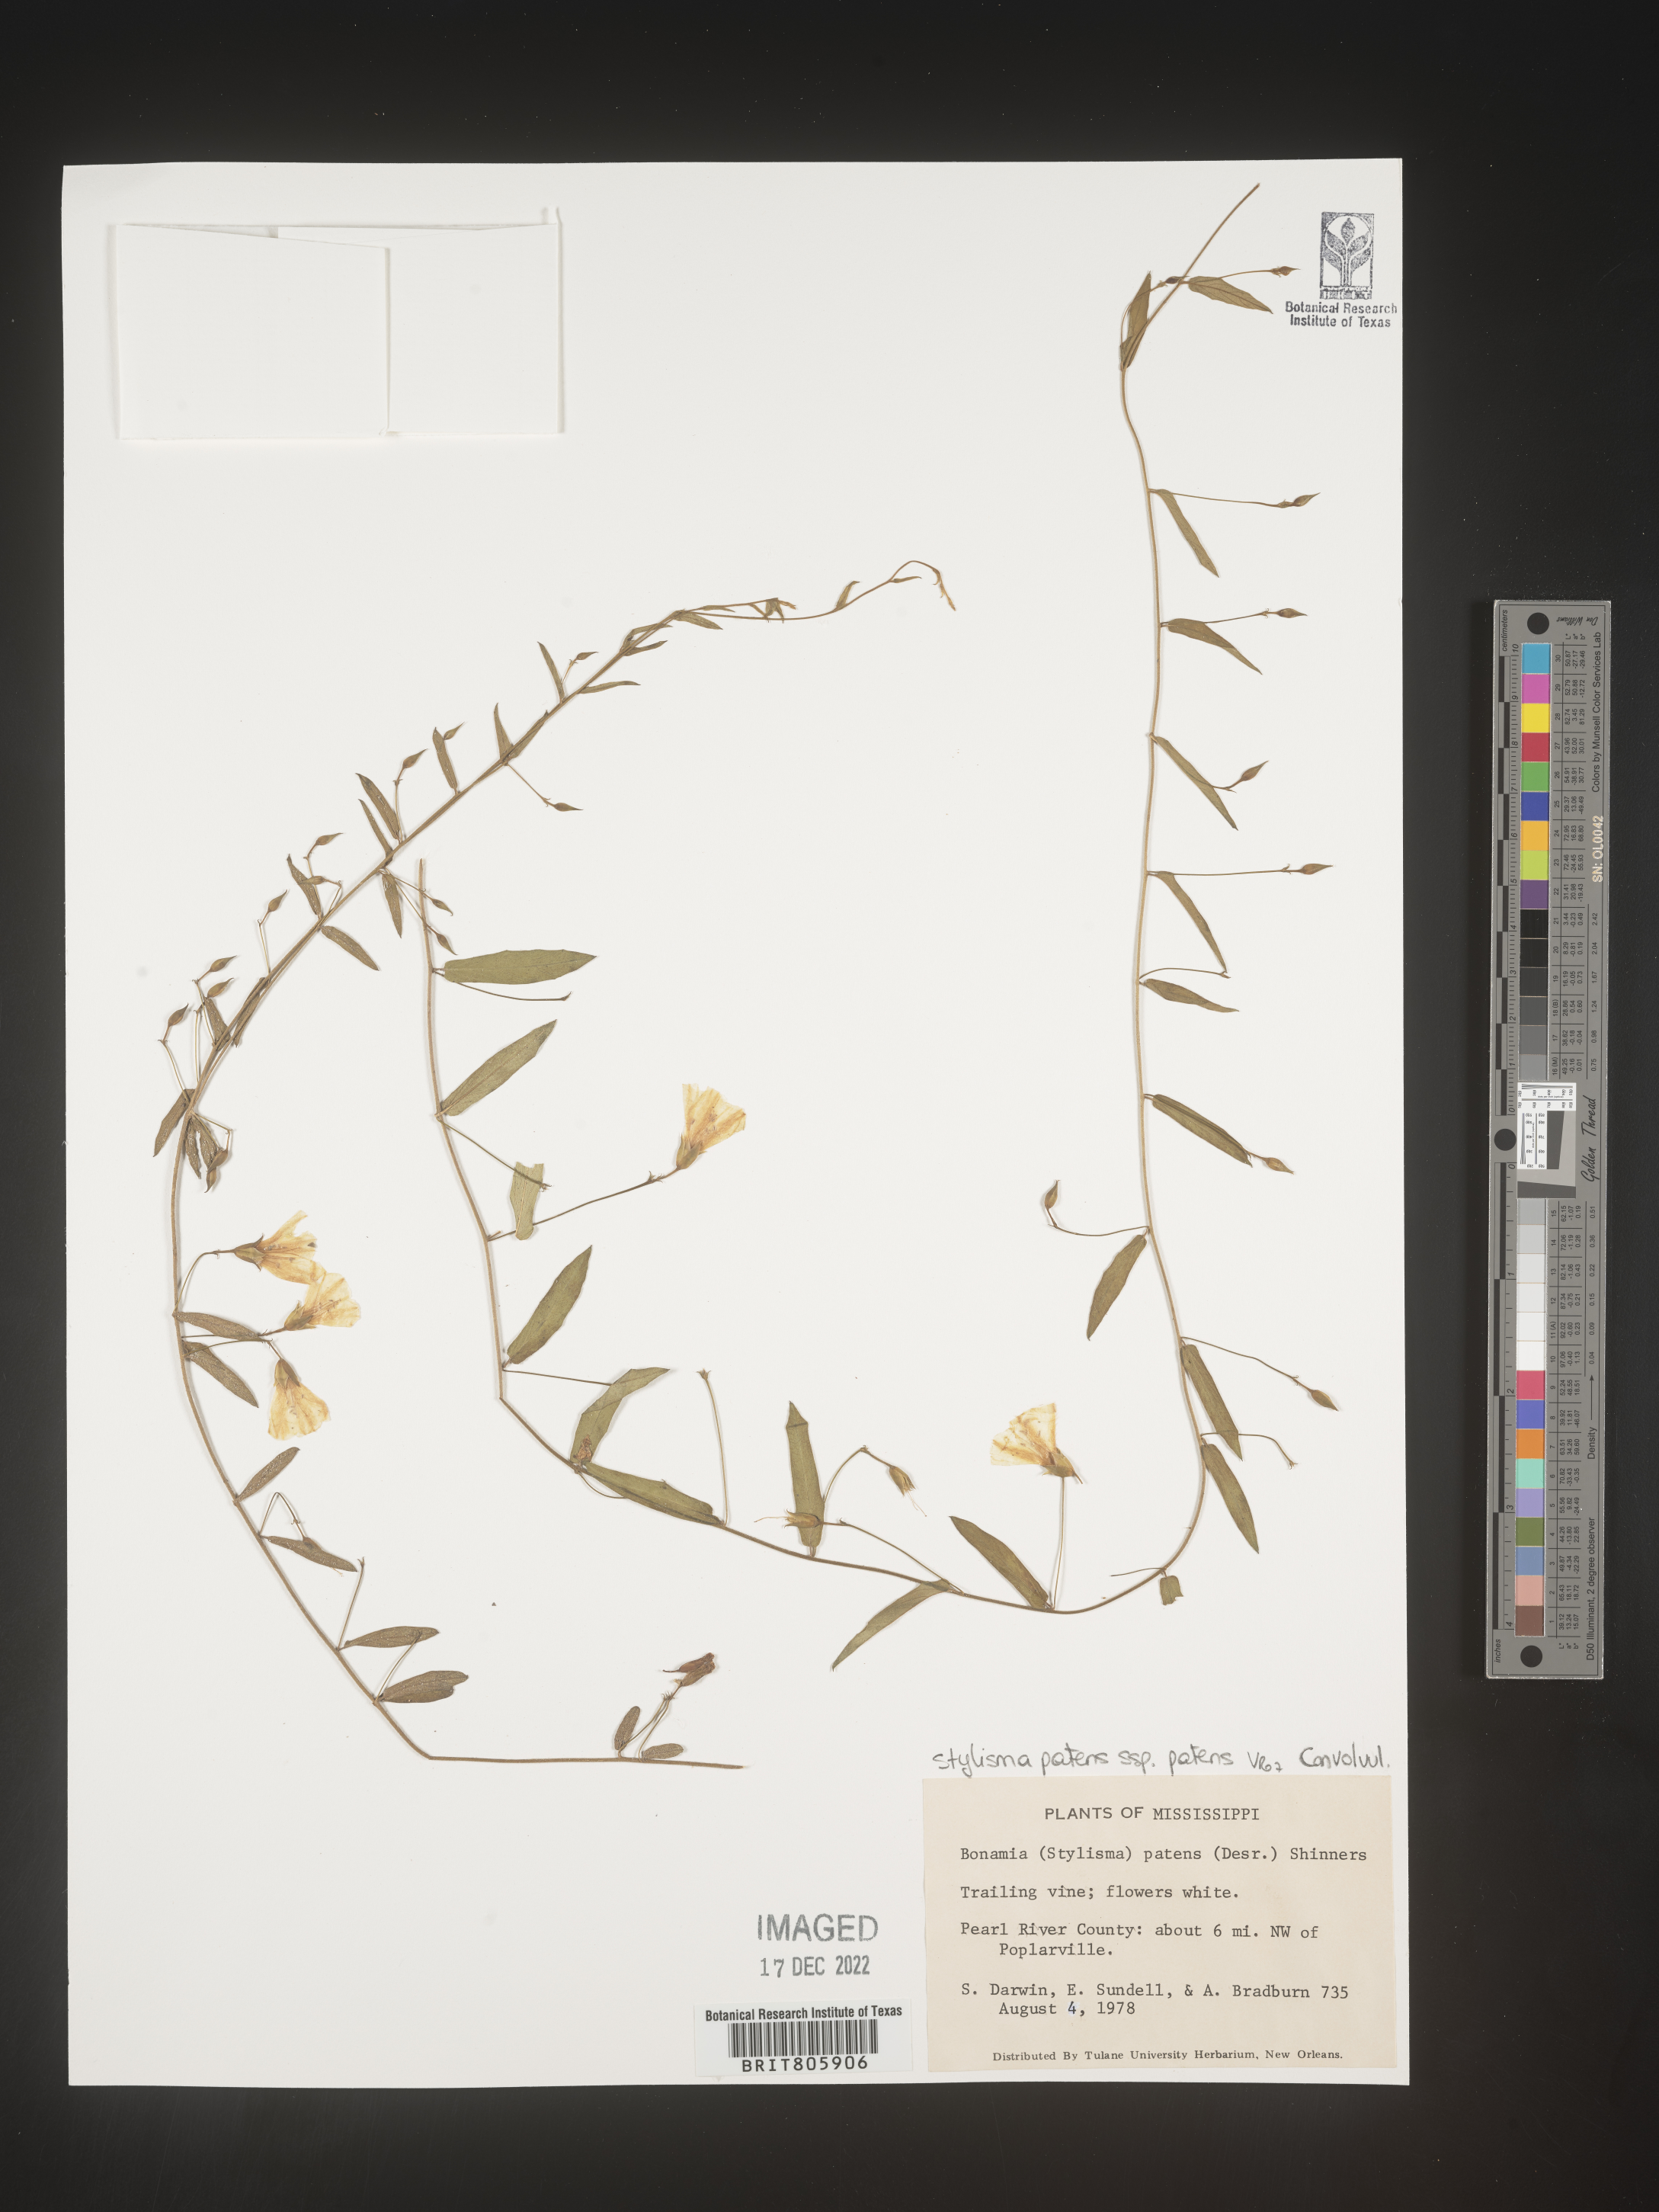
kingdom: Plantae
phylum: Tracheophyta
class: Magnoliopsida
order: Solanales
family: Convolvulaceae
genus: Stylisma
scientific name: Stylisma
